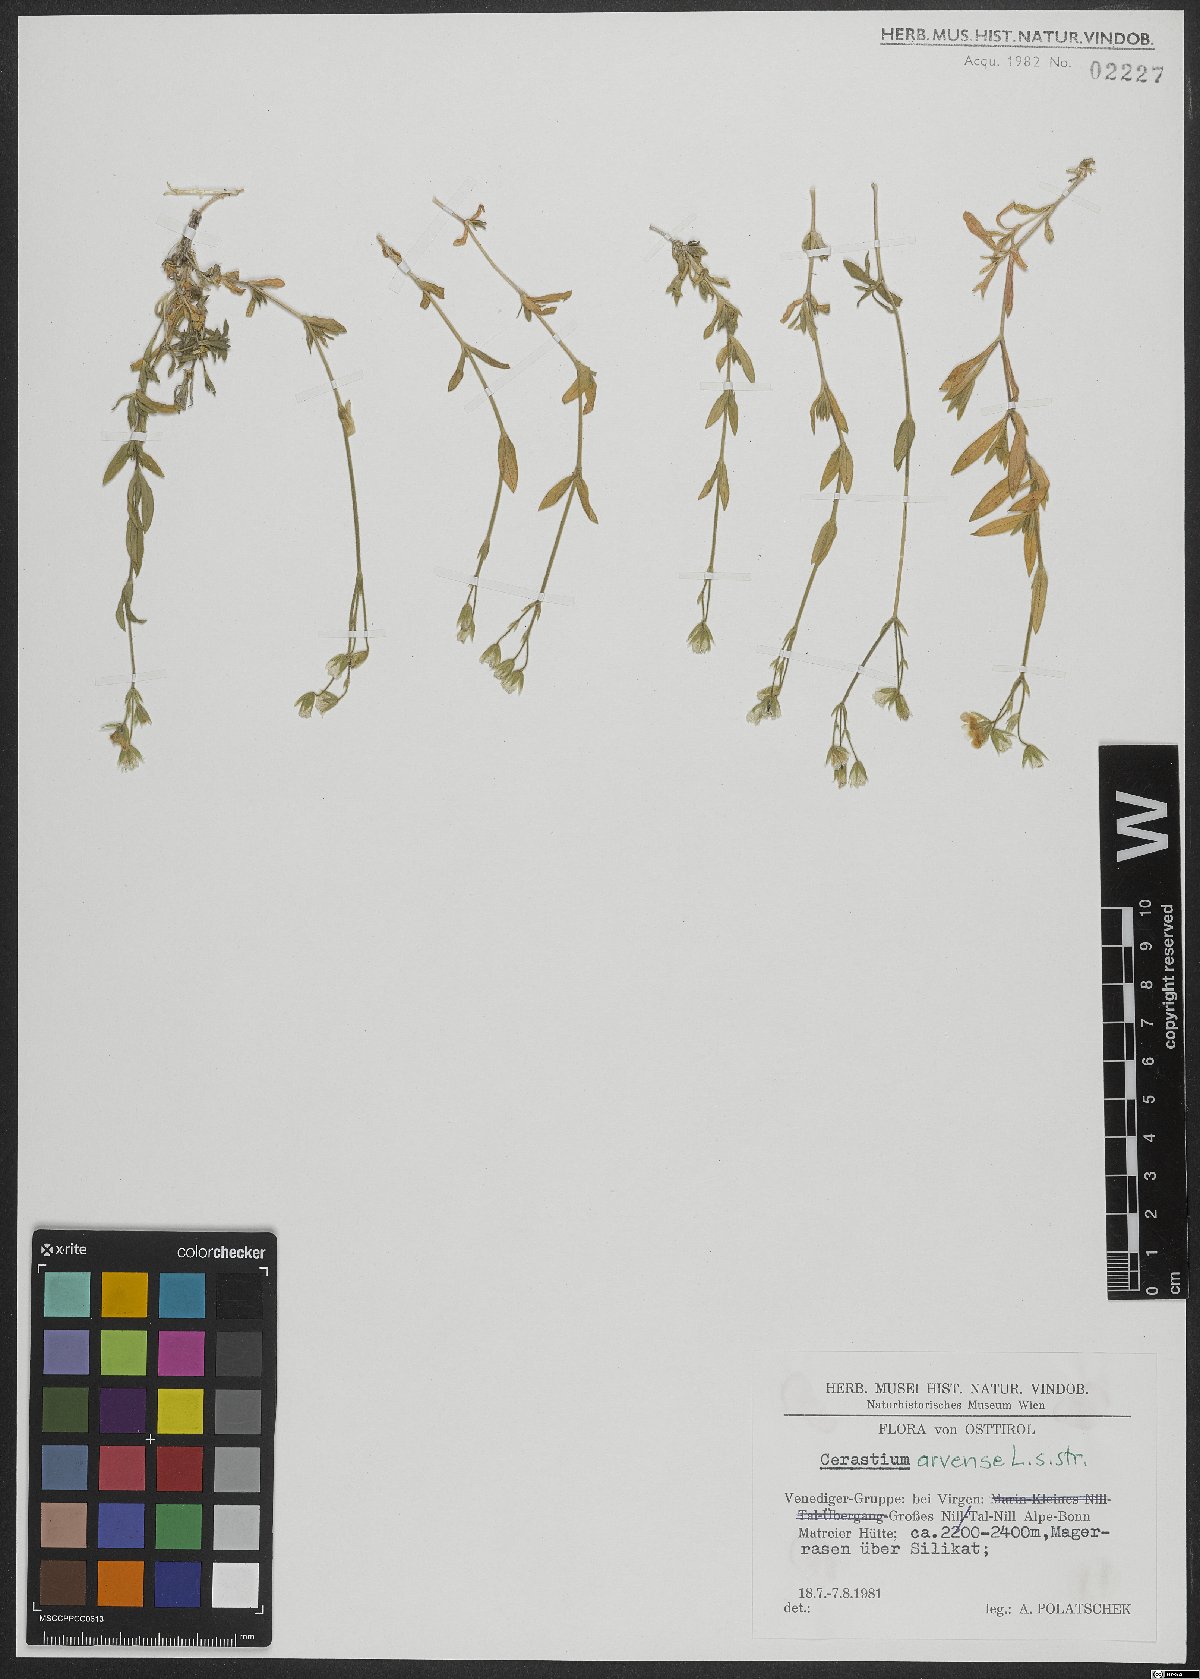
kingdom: Plantae
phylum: Tracheophyta
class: Magnoliopsida
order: Caryophyllales
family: Caryophyllaceae
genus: Cerastium
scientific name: Cerastium elongatum
